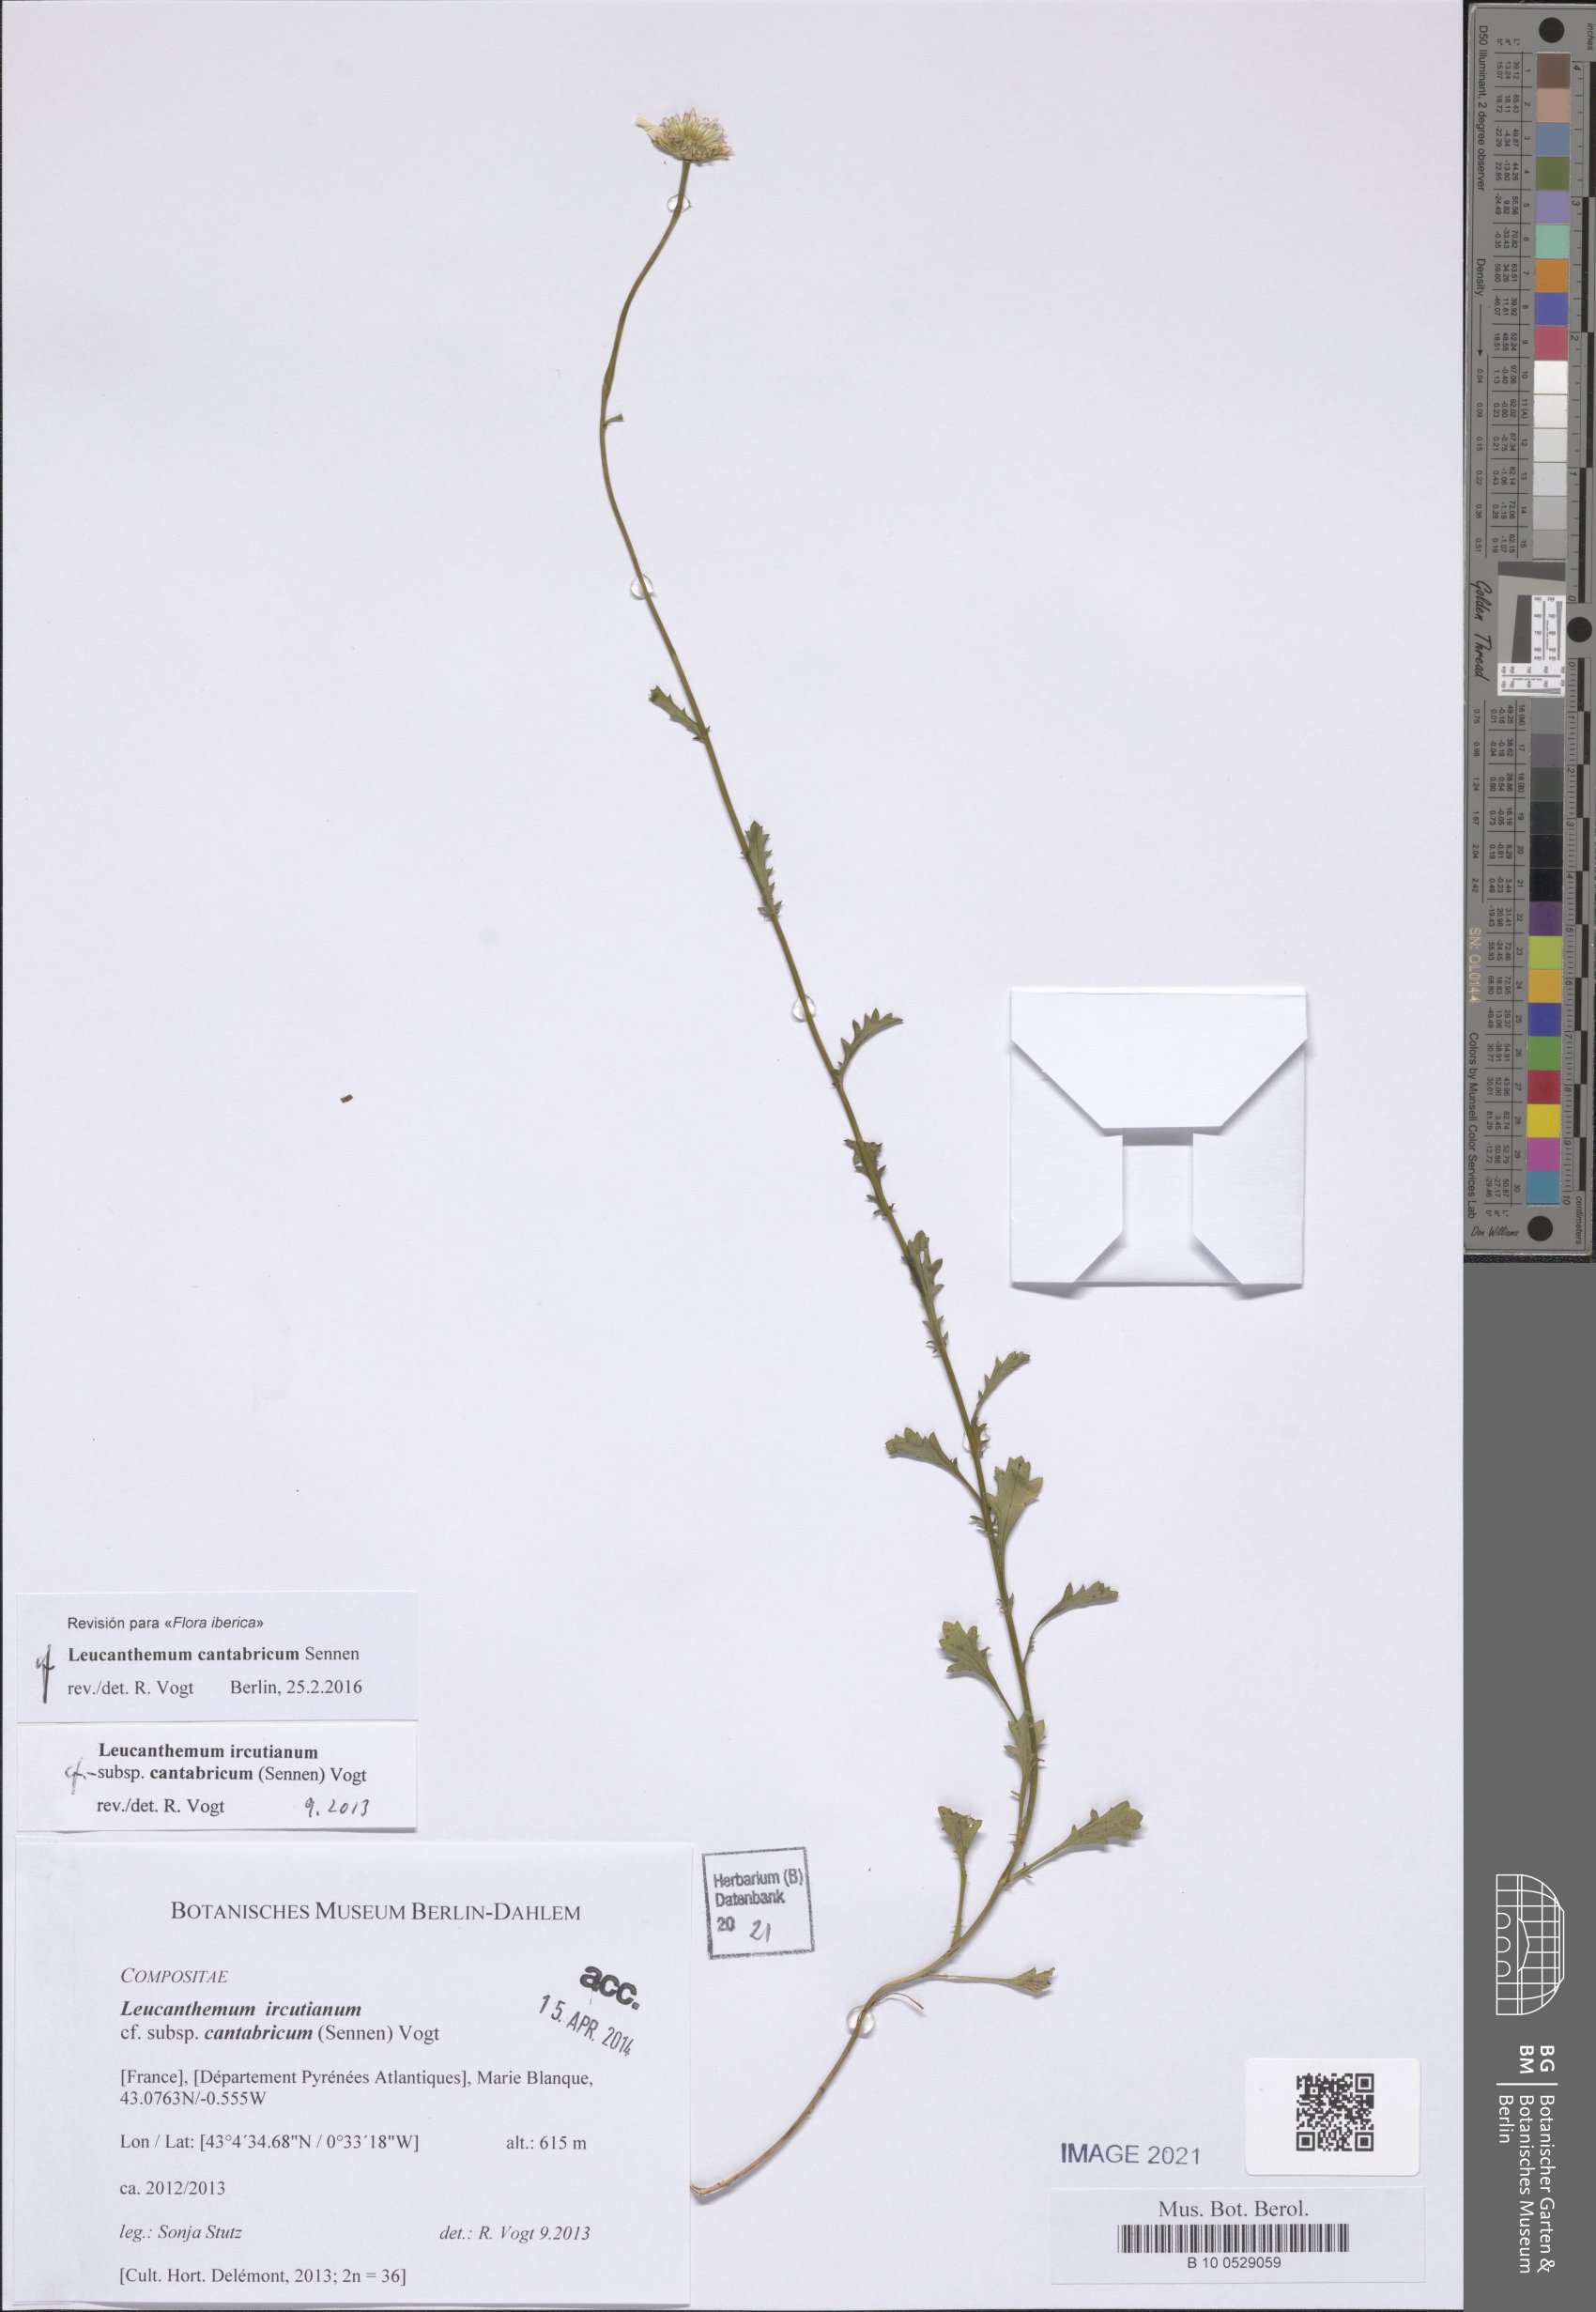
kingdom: Plantae
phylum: Tracheophyta
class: Magnoliopsida
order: Asterales
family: Asteraceae
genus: Leucanthemum
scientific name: Leucanthemum cantabricum
